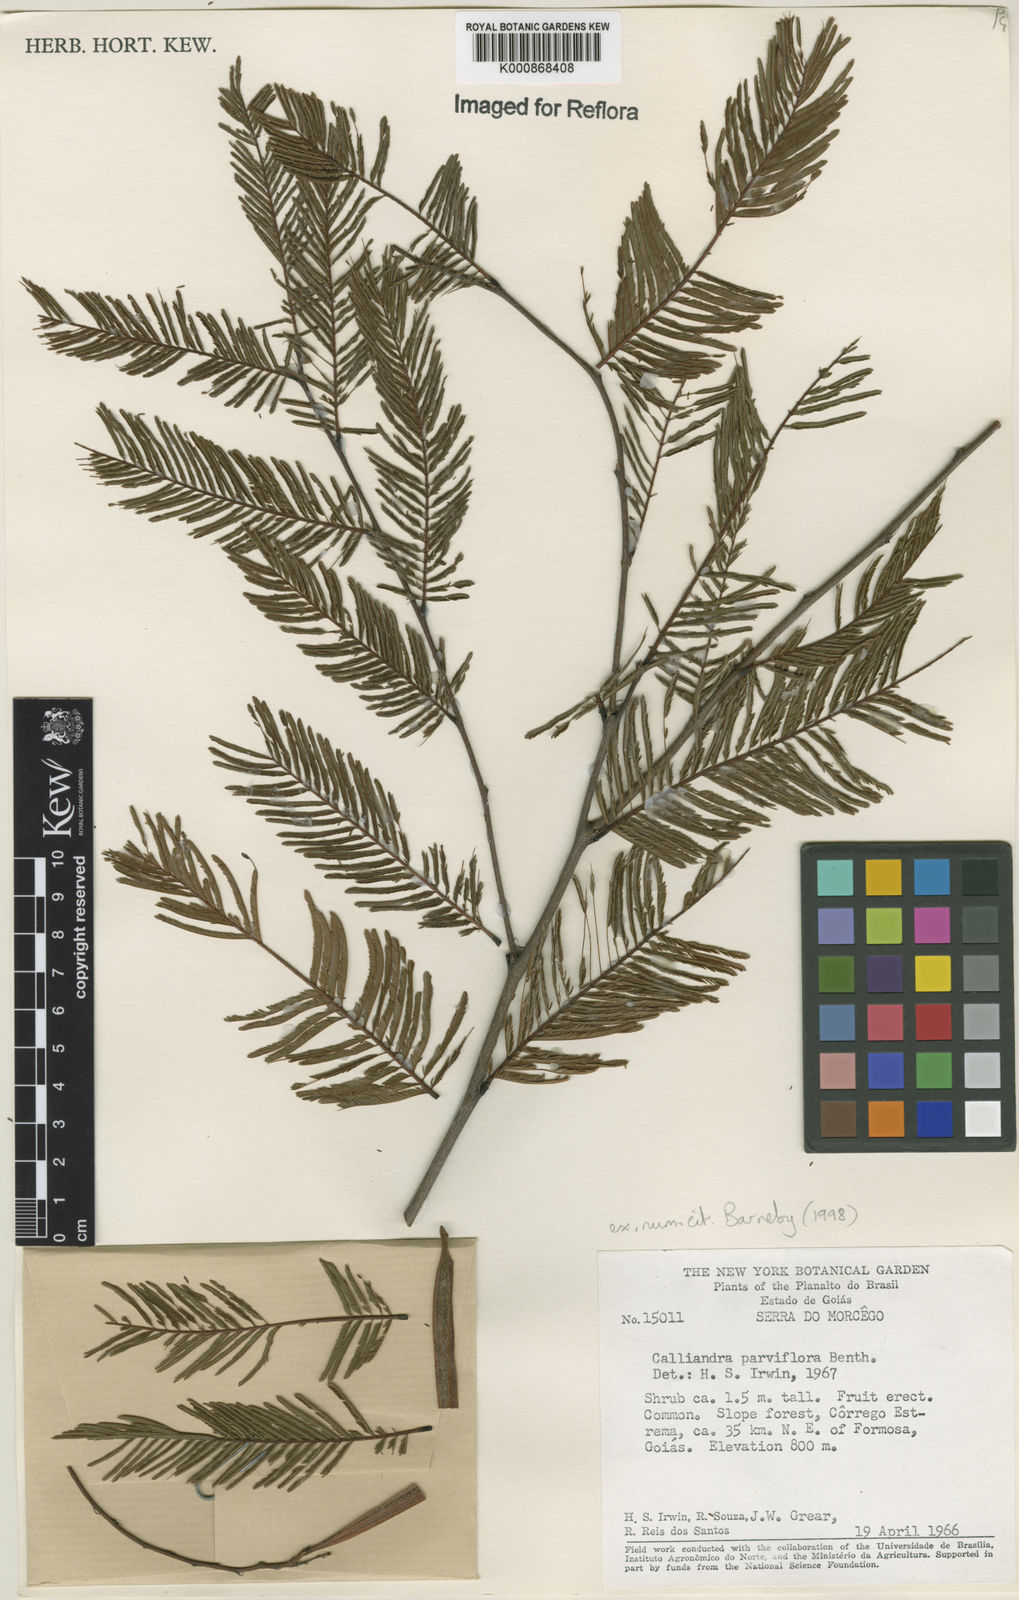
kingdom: Plantae
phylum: Tracheophyta
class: Magnoliopsida
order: Fabales
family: Fabaceae
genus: Calliandra
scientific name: Calliandra parviflora
